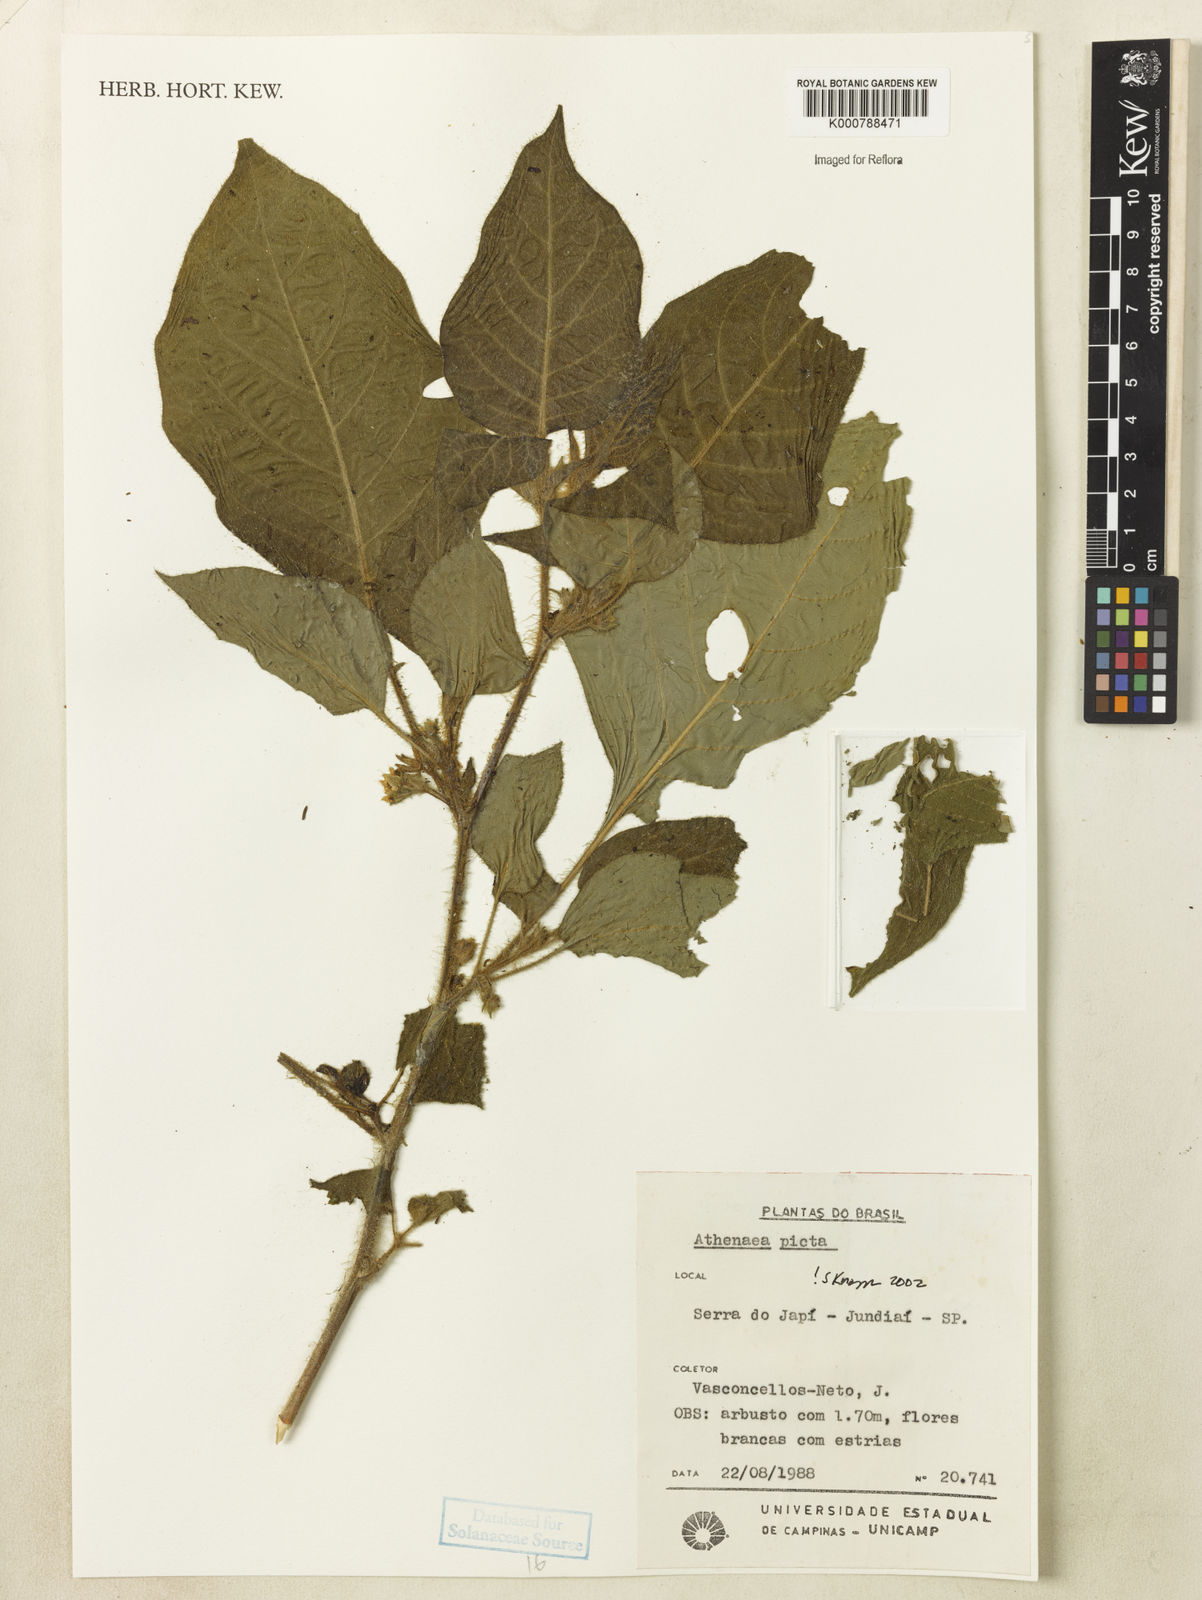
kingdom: Plantae
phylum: Tracheophyta
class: Magnoliopsida
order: Solanales
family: Solanaceae
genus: Athenaea
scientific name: Athenaea picta
